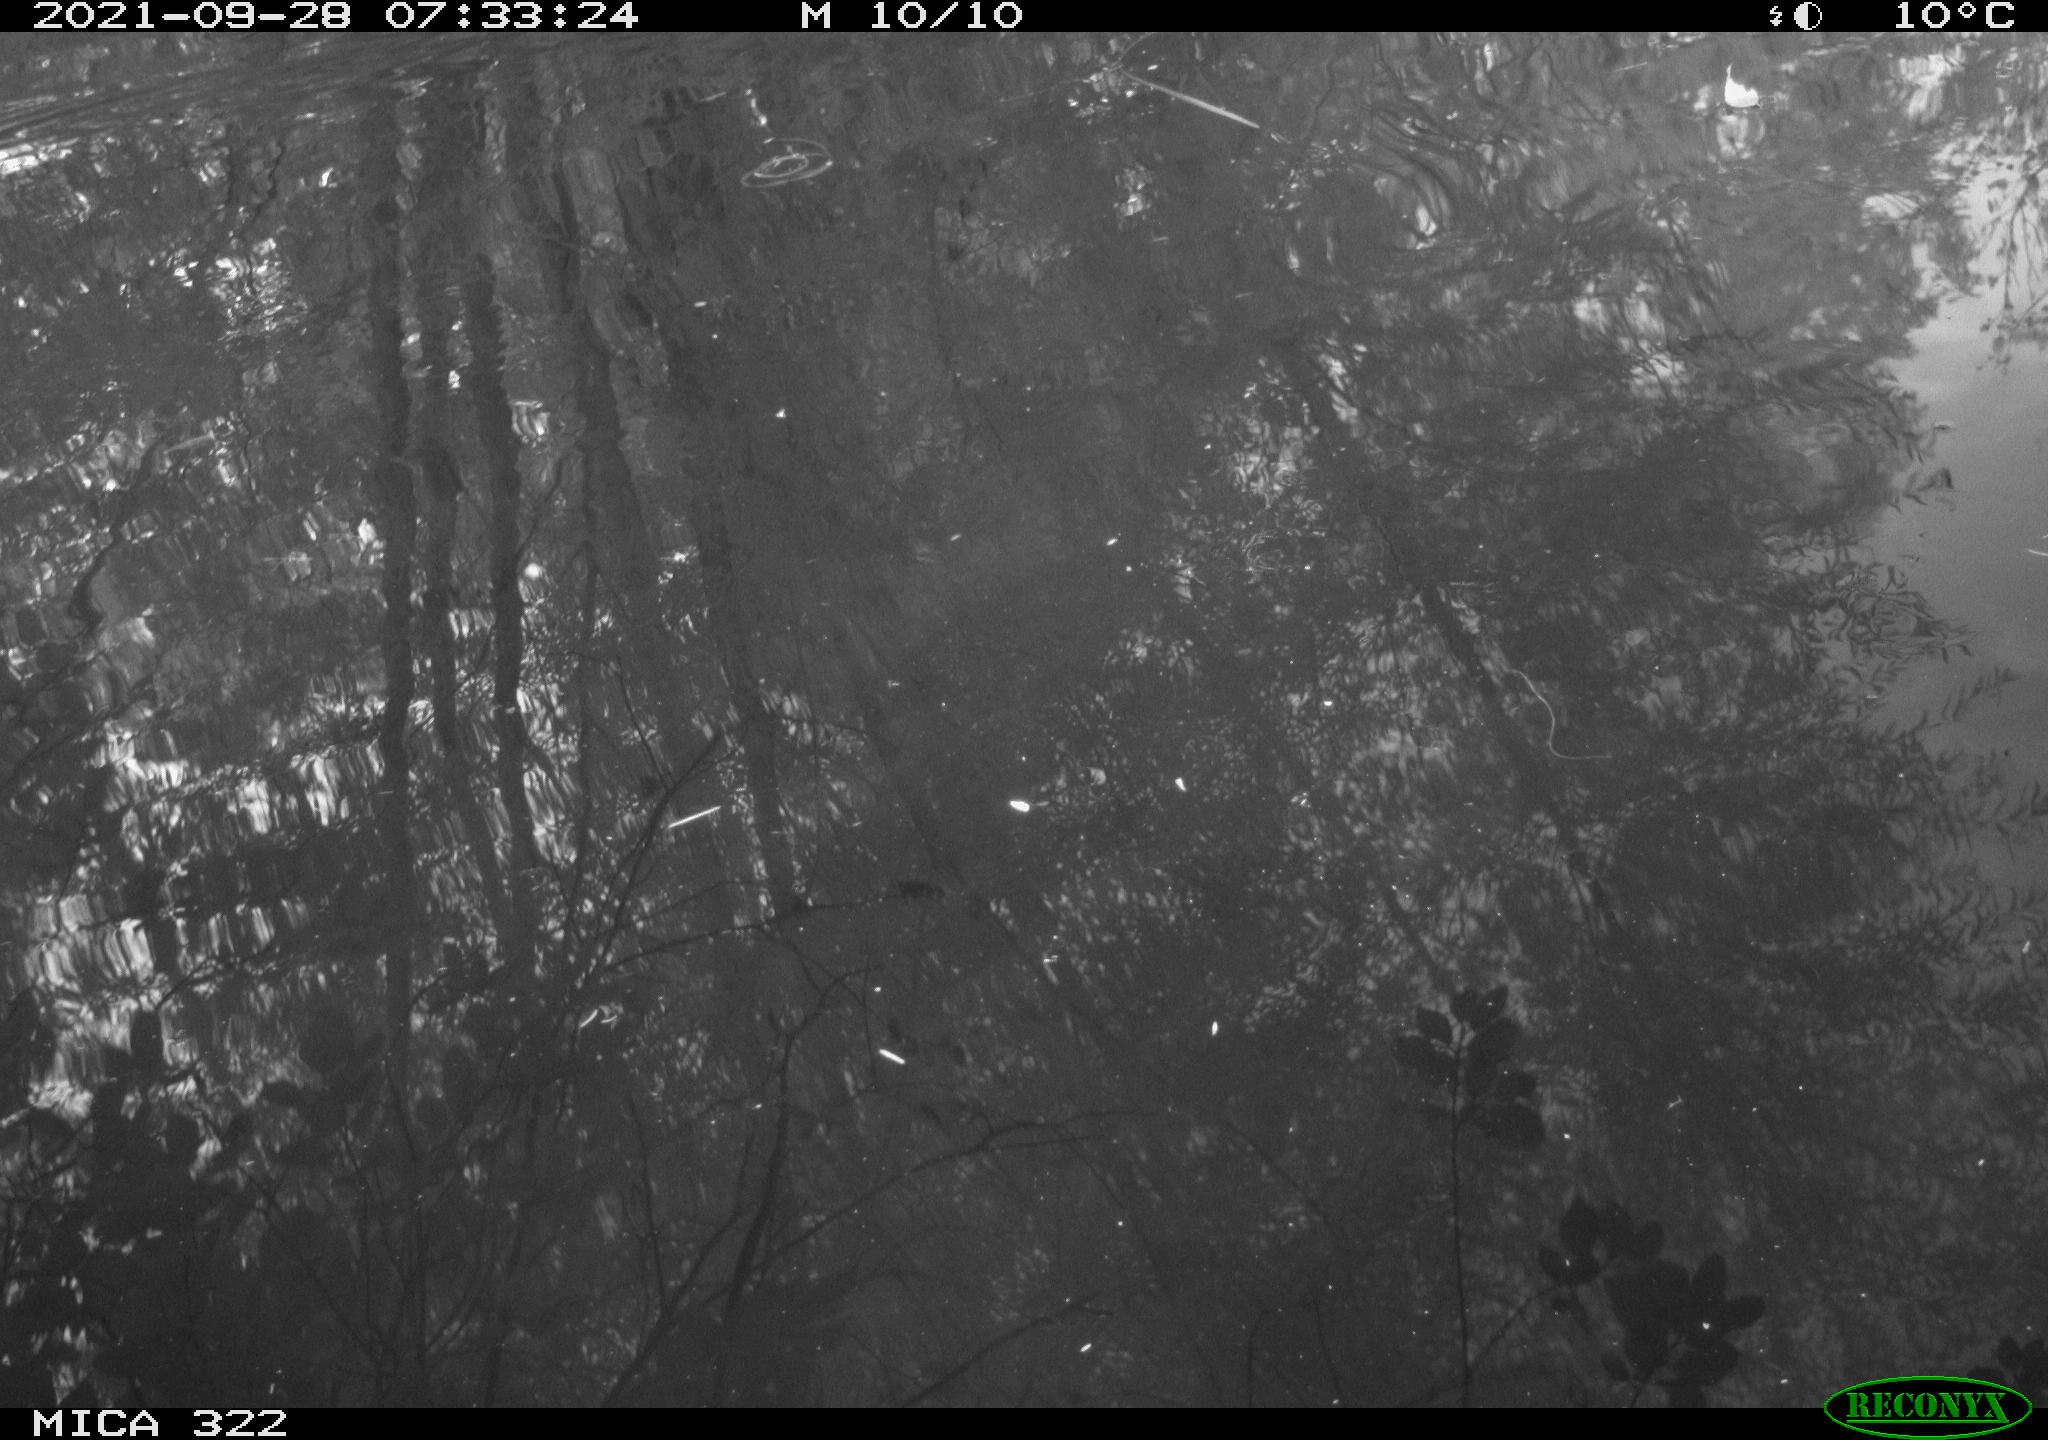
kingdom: Animalia
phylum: Chordata
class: Aves
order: Anseriformes
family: Anatidae
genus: Mareca
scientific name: Mareca strepera
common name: Gadwall
